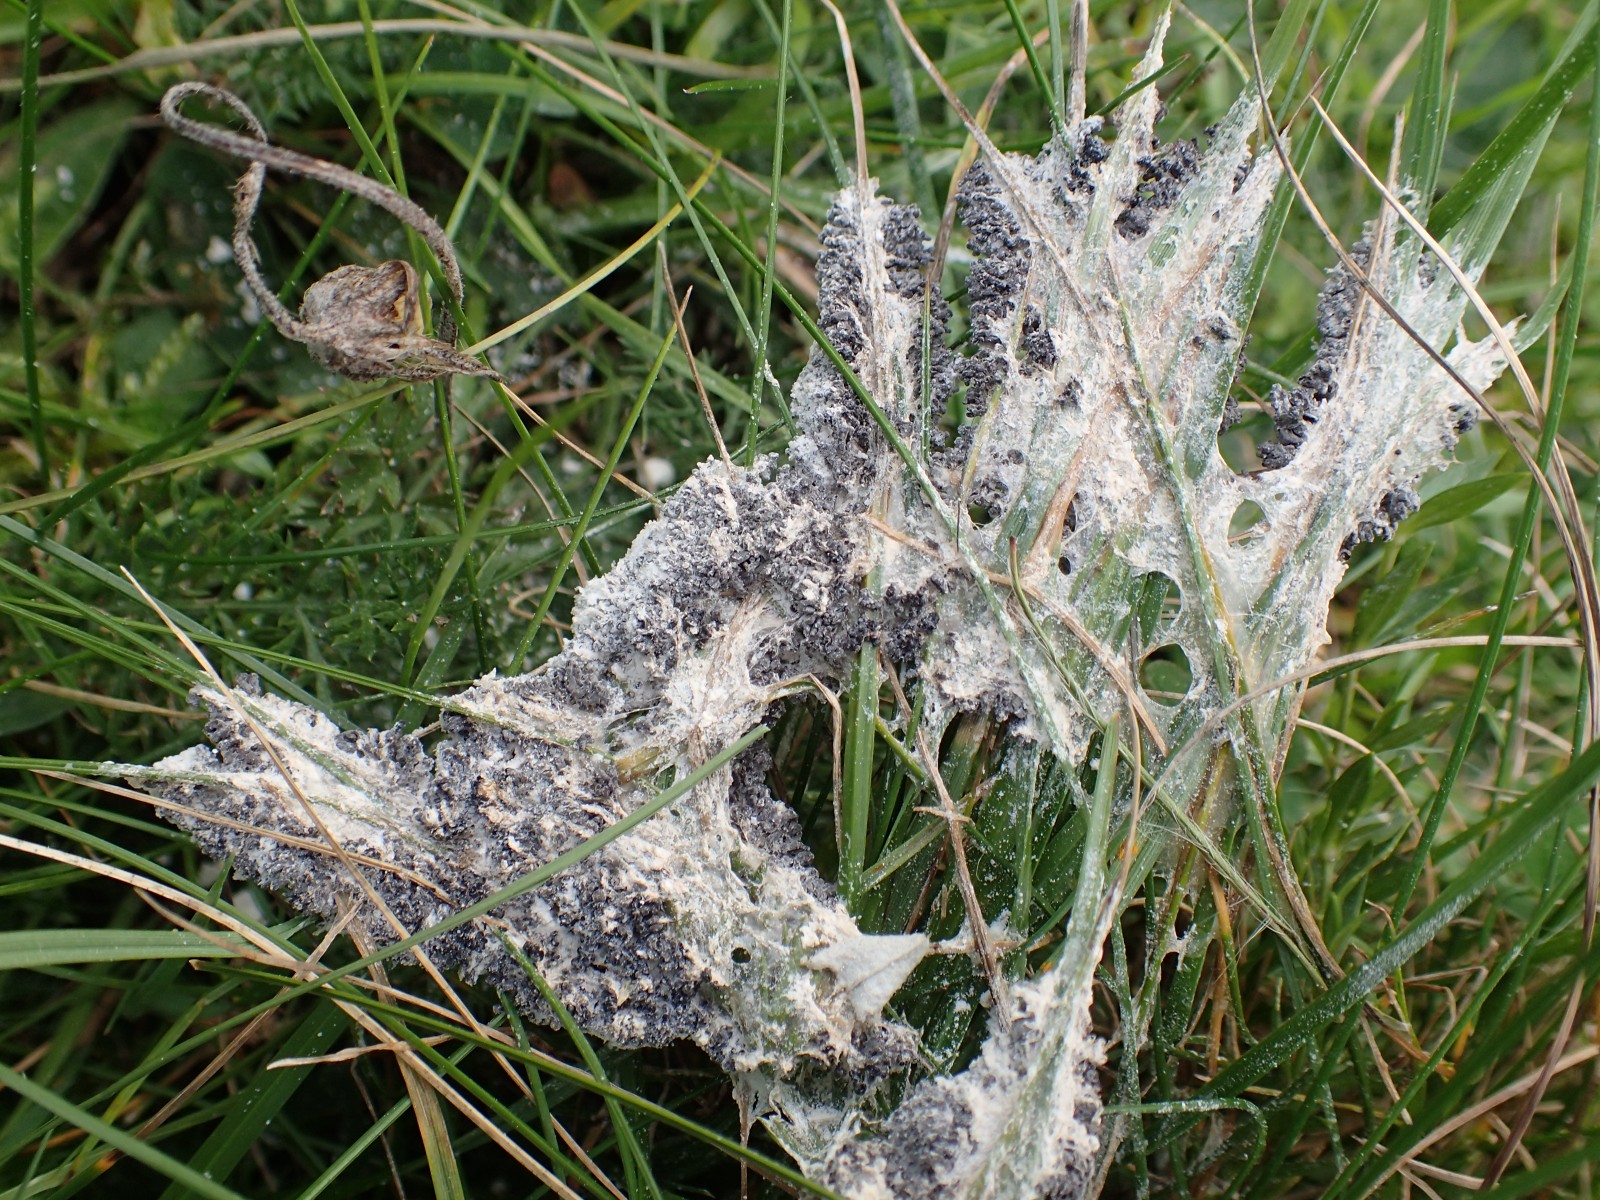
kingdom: Protozoa
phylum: Mycetozoa
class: Myxomycetes
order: Physarales
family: Physaraceae
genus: Didymium
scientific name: Didymium
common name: urteskum
